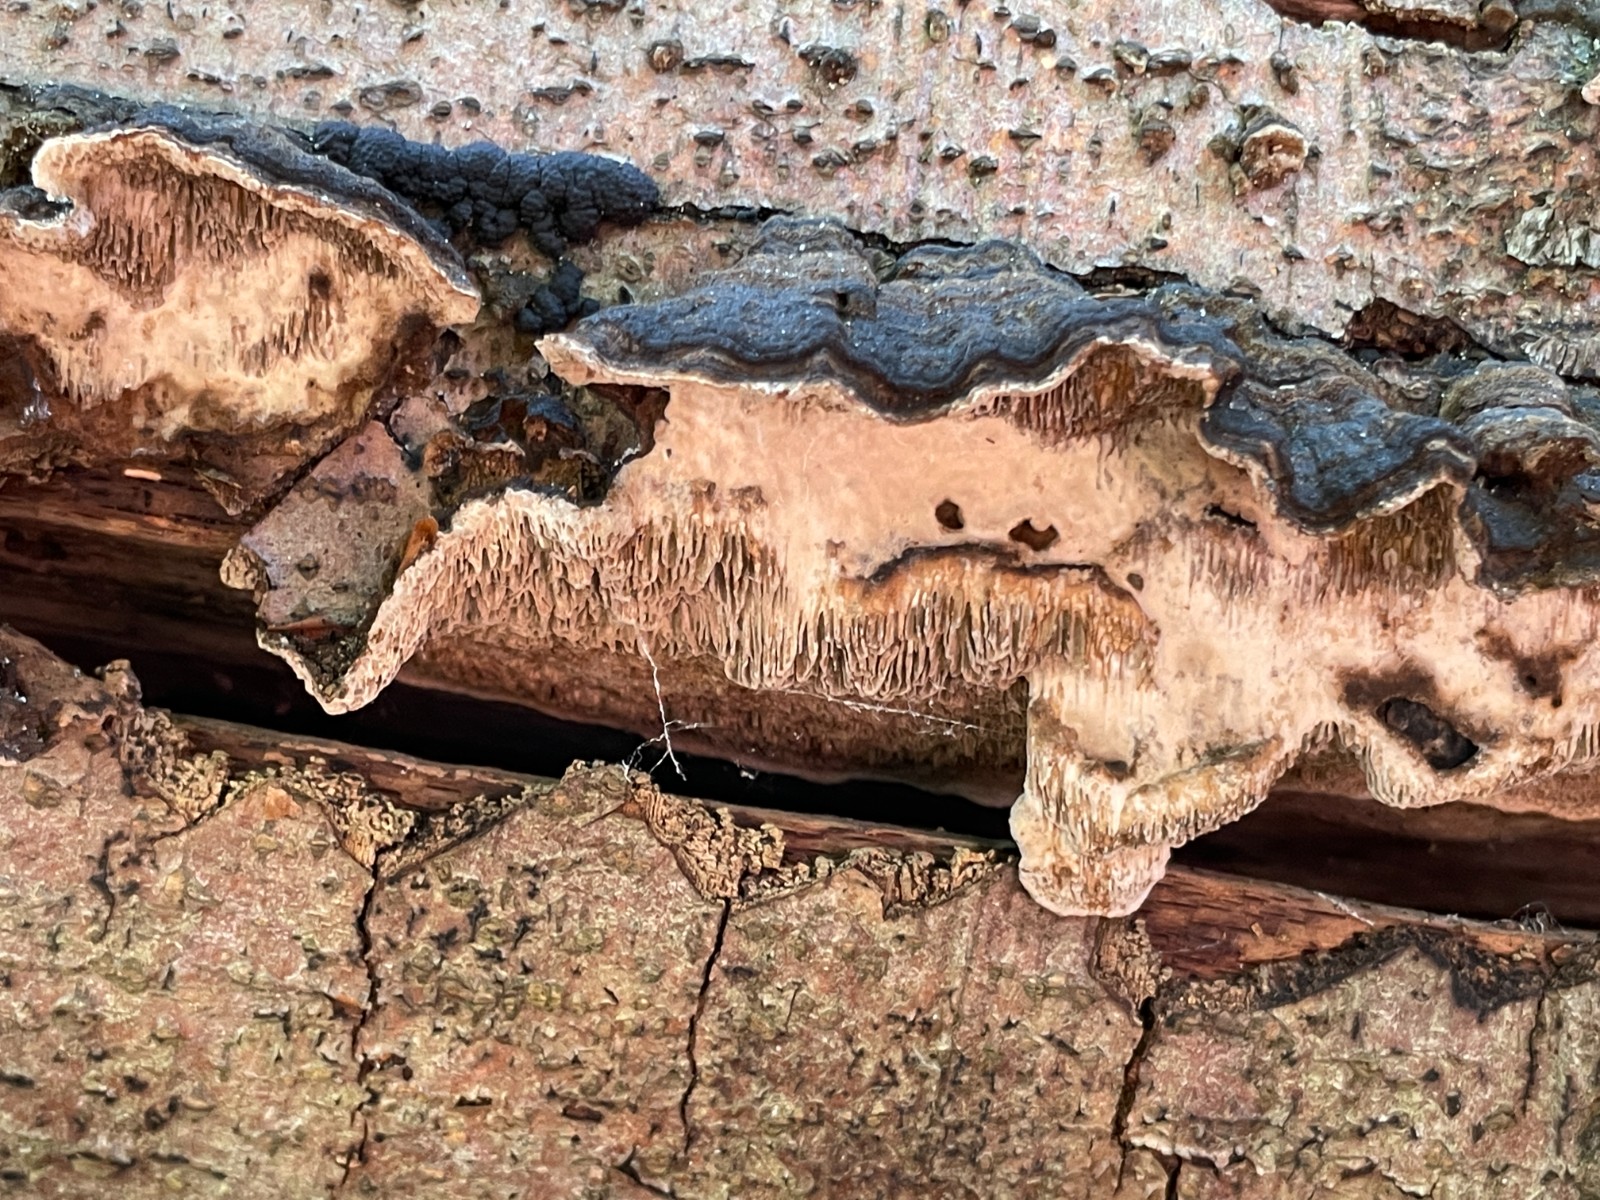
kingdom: Fungi
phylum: Basidiomycota
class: Agaricomycetes
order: Polyporales
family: Polyporaceae
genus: Podofomes
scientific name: Podofomes mollis
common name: blød begporesvamp
